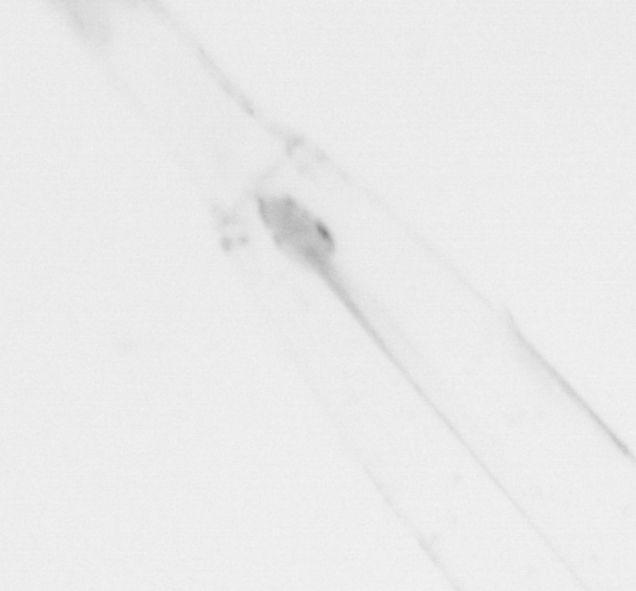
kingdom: Animalia
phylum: Chaetognatha
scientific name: Chaetognatha
